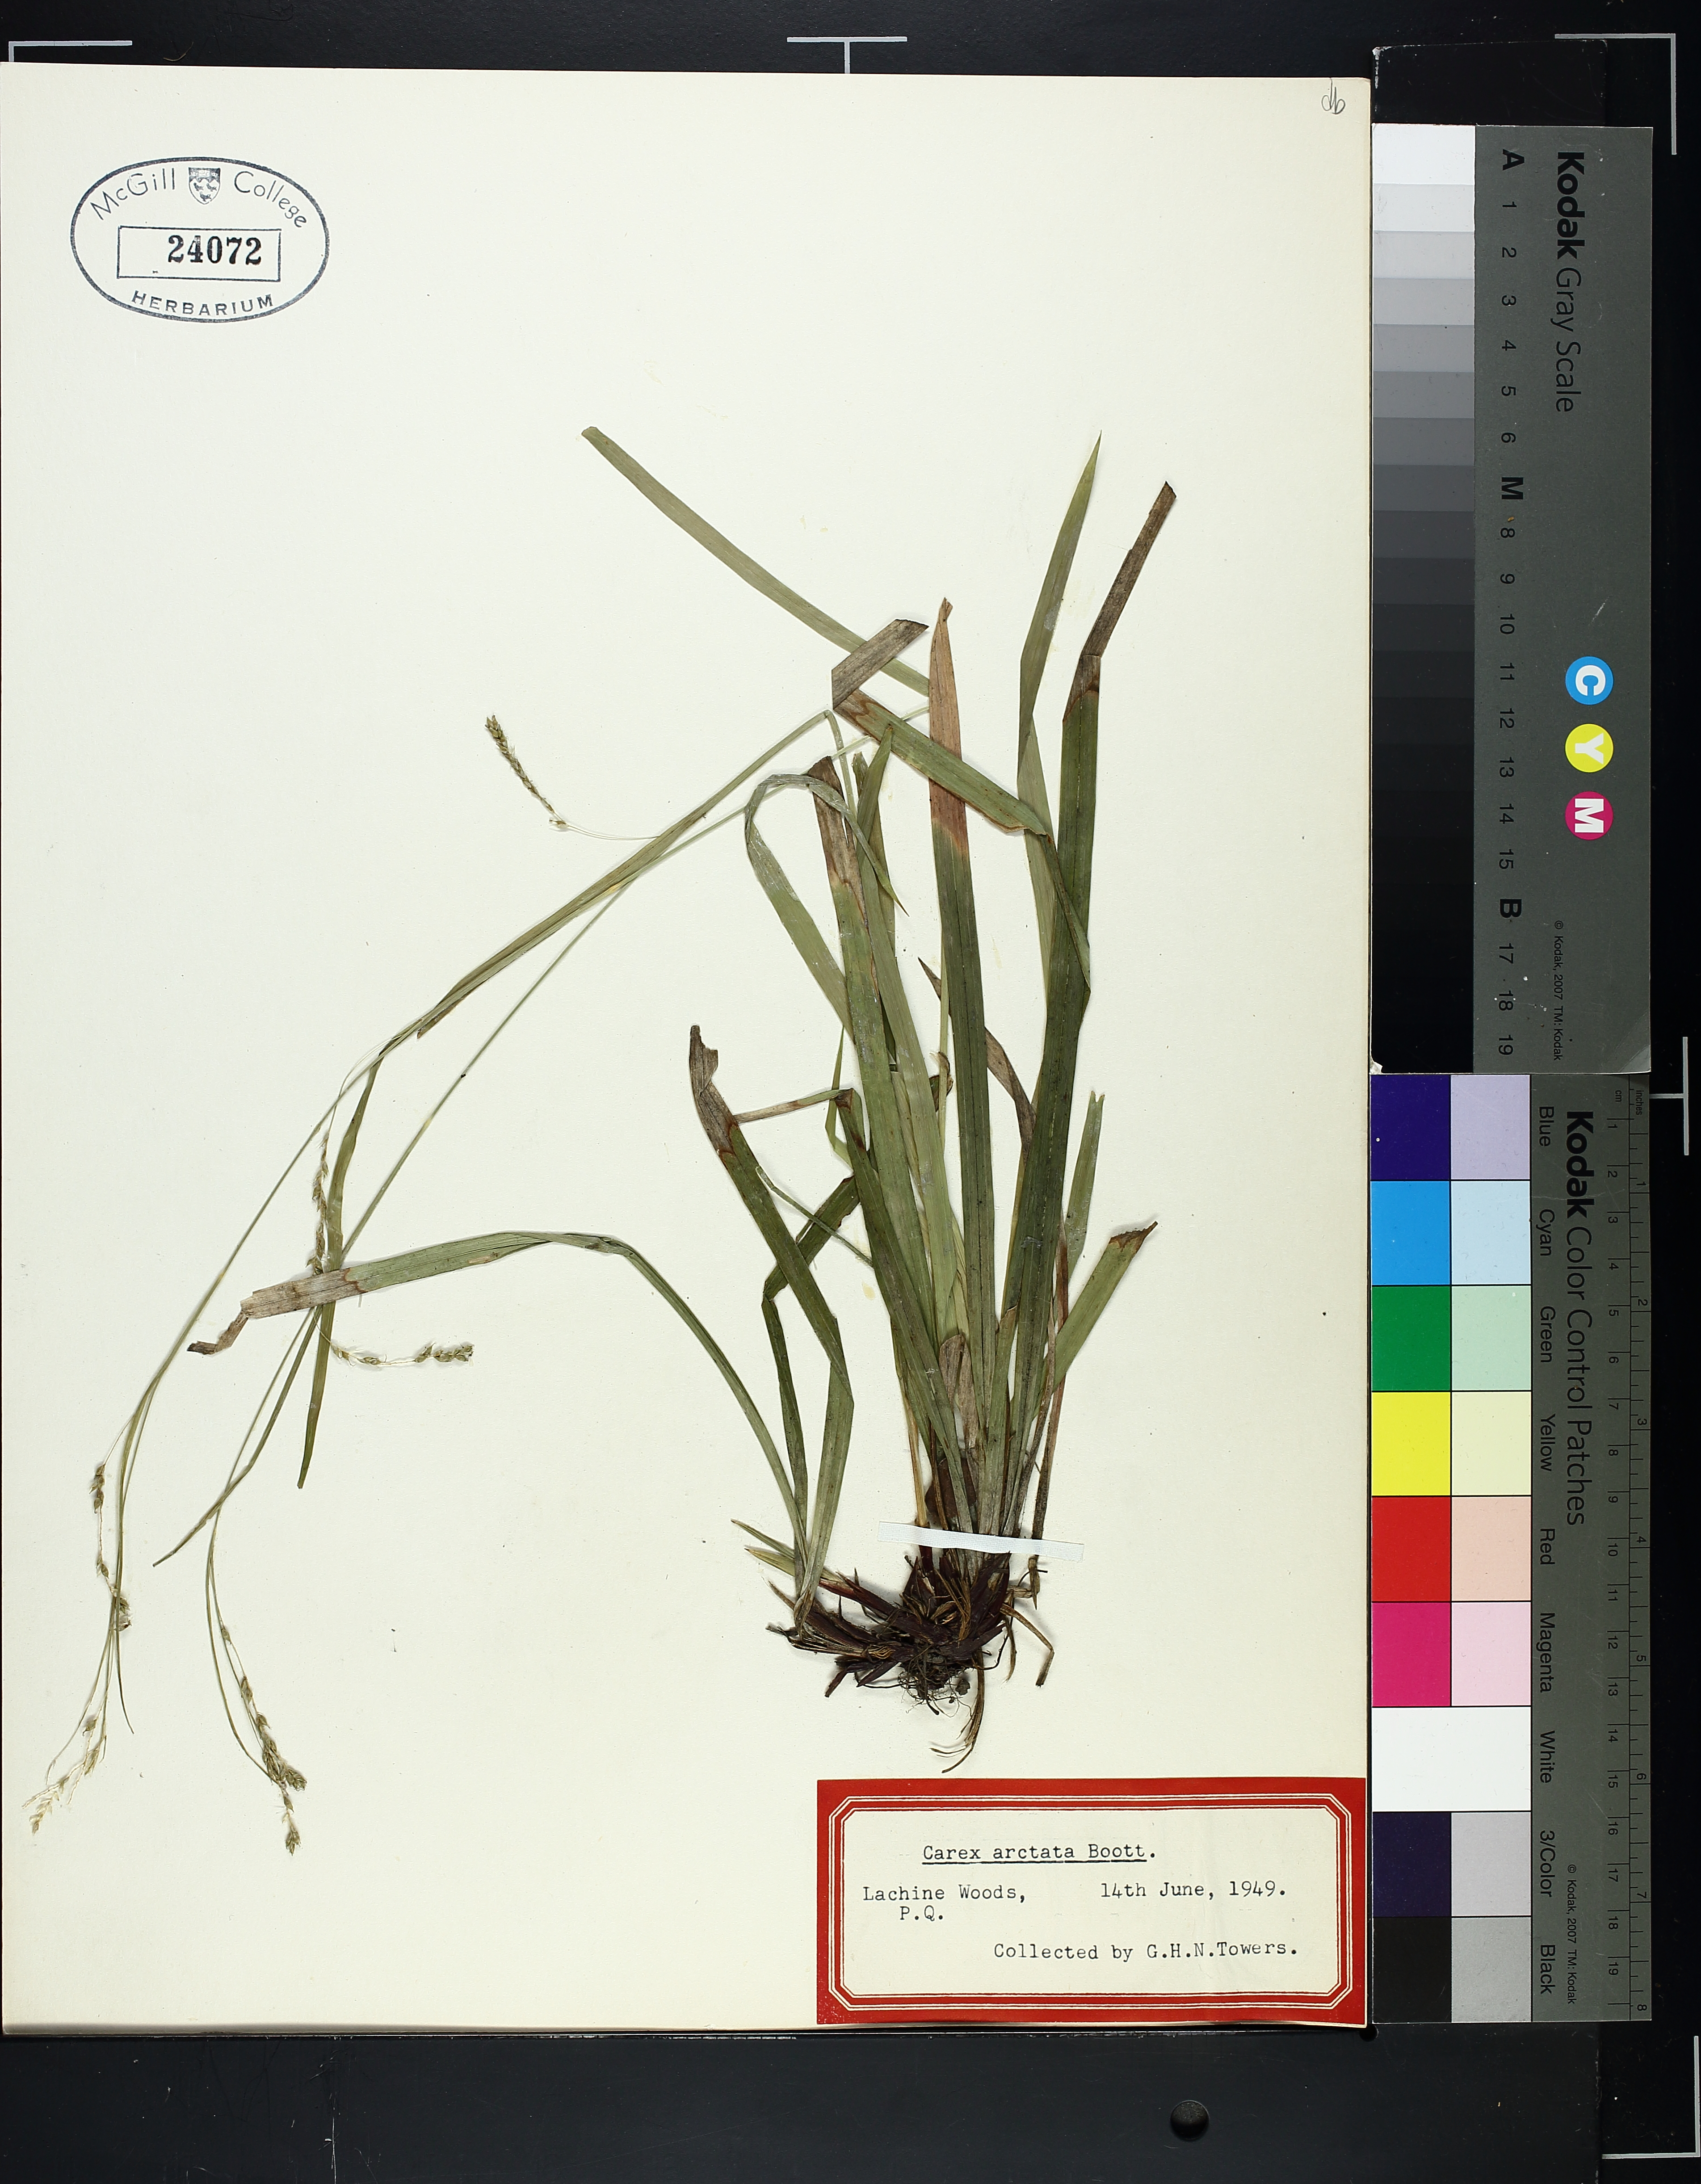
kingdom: Plantae
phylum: Tracheophyta
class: Liliopsida
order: Poales
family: Cyperaceae
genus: Carex
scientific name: Carex arctata
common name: Black sedge
